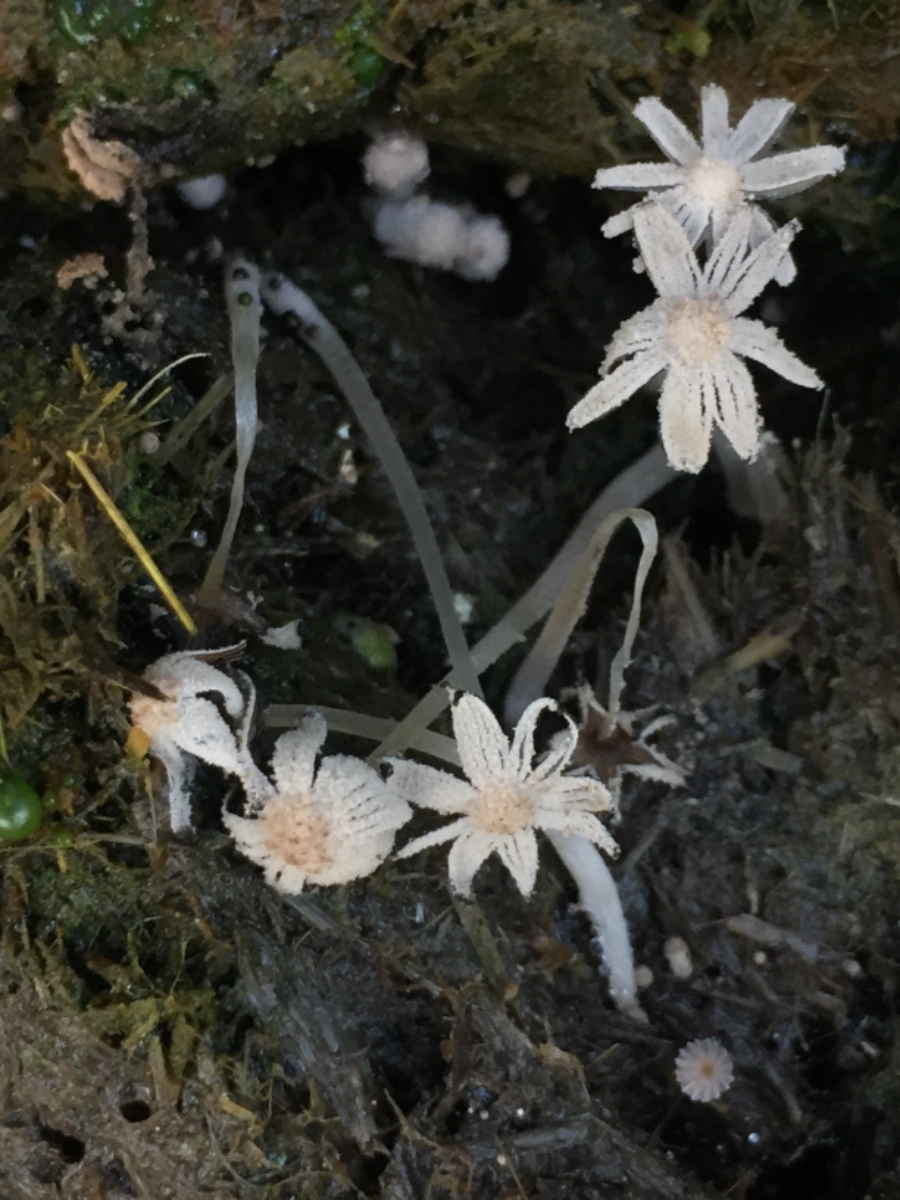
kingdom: Fungi
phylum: Basidiomycota
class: Agaricomycetes
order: Agaricales
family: Psathyrellaceae
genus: Coprinopsis
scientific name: Coprinopsis tuberosa
